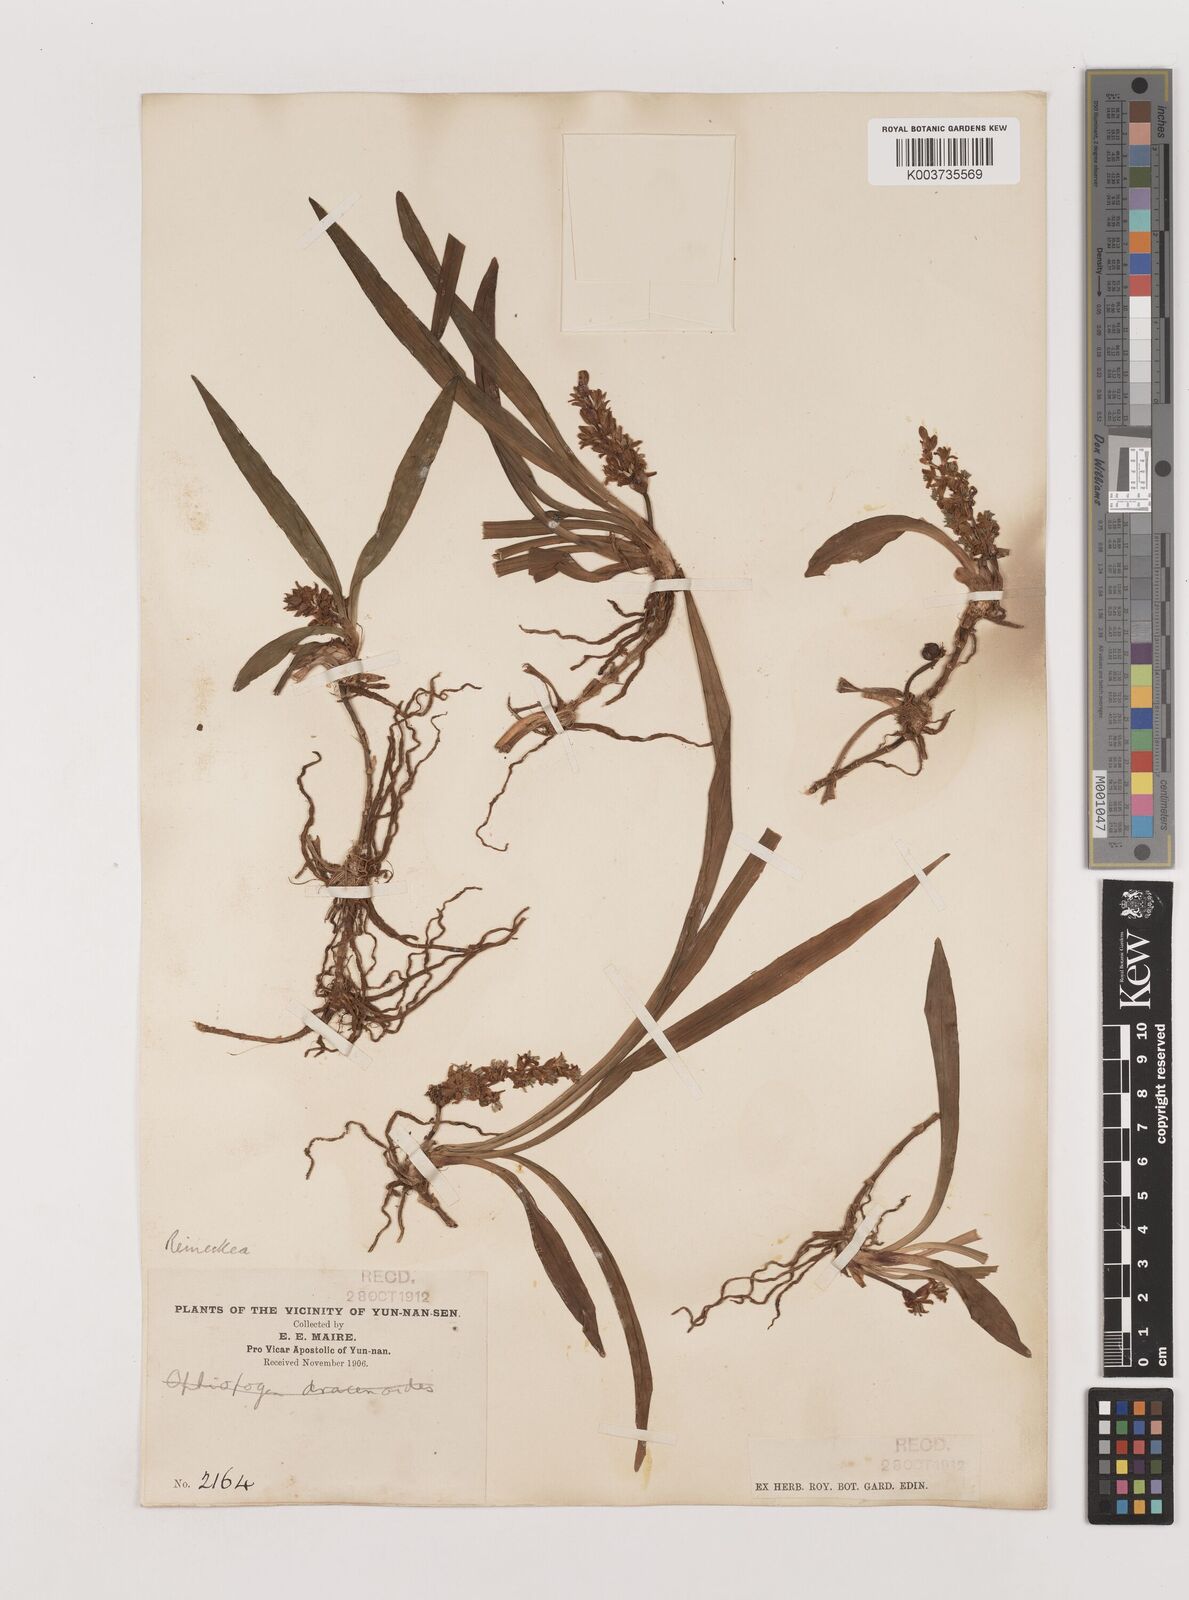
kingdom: Plantae
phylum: Tracheophyta
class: Liliopsida
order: Asparagales
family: Asparagaceae
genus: Reineckea
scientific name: Reineckea carnea
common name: Reineckea
